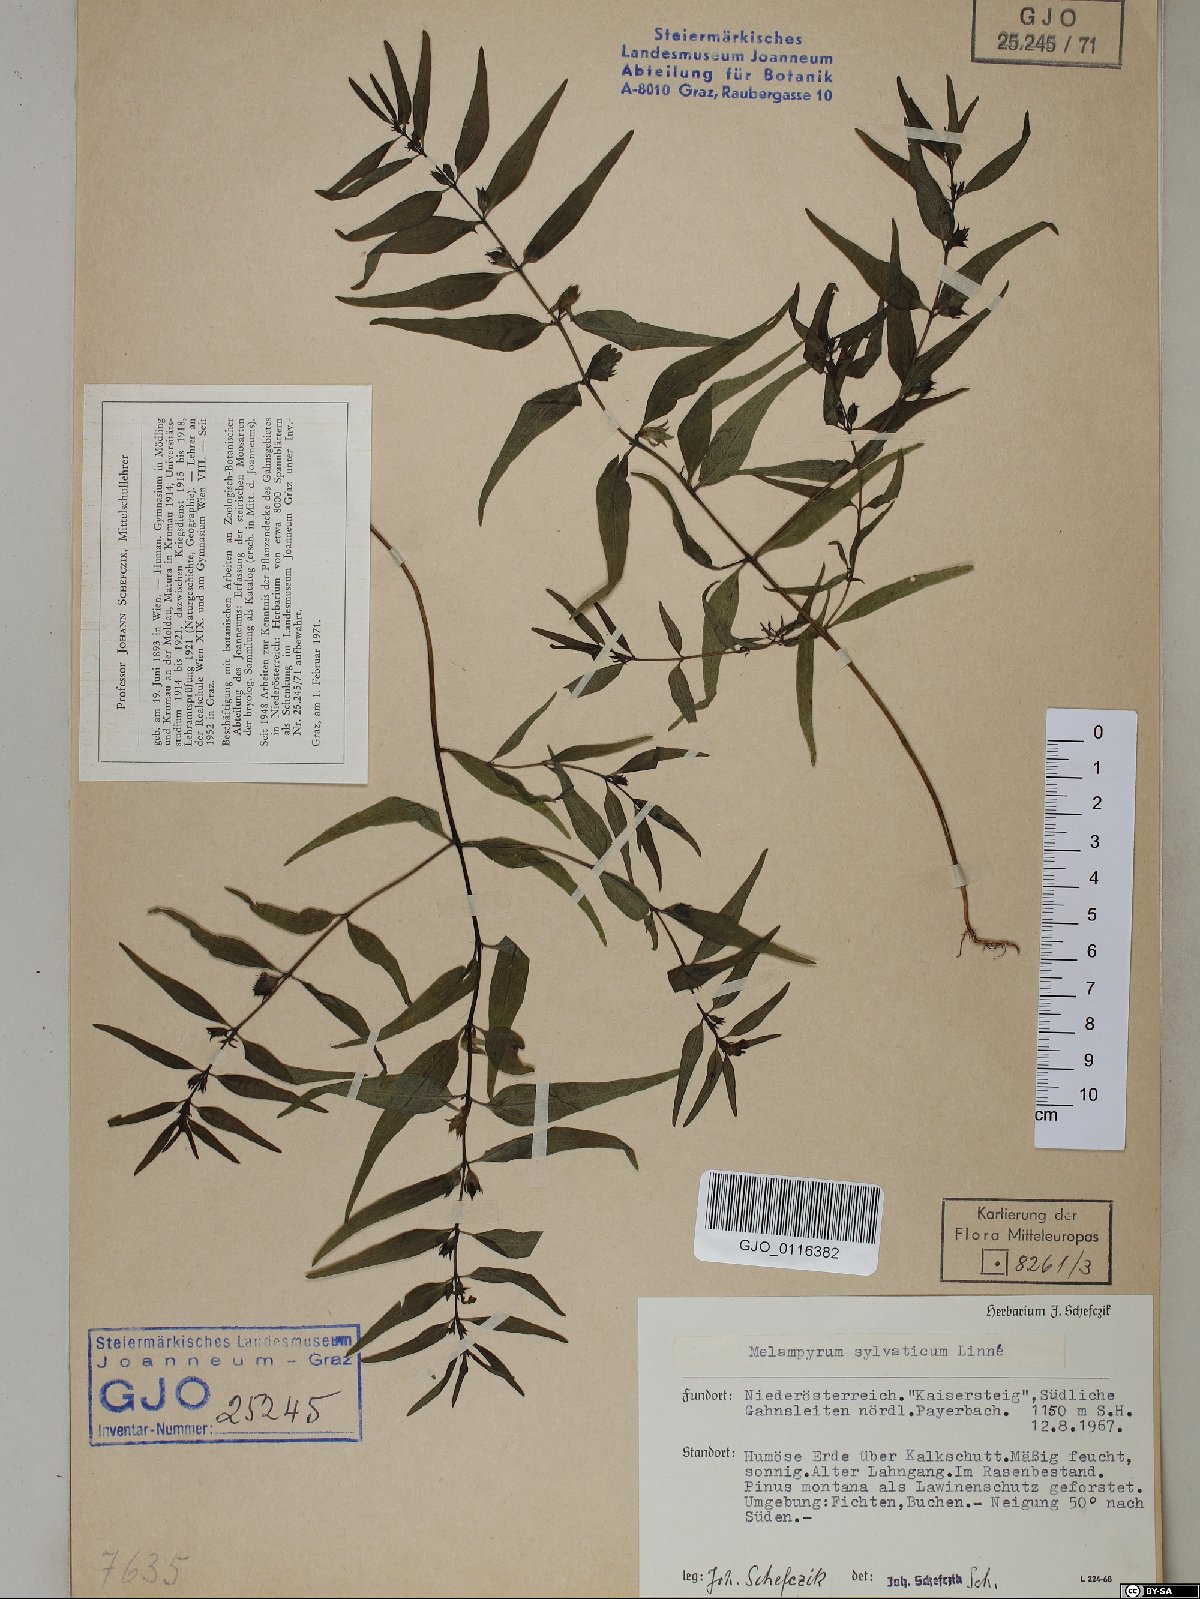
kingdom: Plantae
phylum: Tracheophyta
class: Magnoliopsida
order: Lamiales
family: Orobanchaceae
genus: Melampyrum
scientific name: Melampyrum sylvaticum
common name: Small cow-wheat
